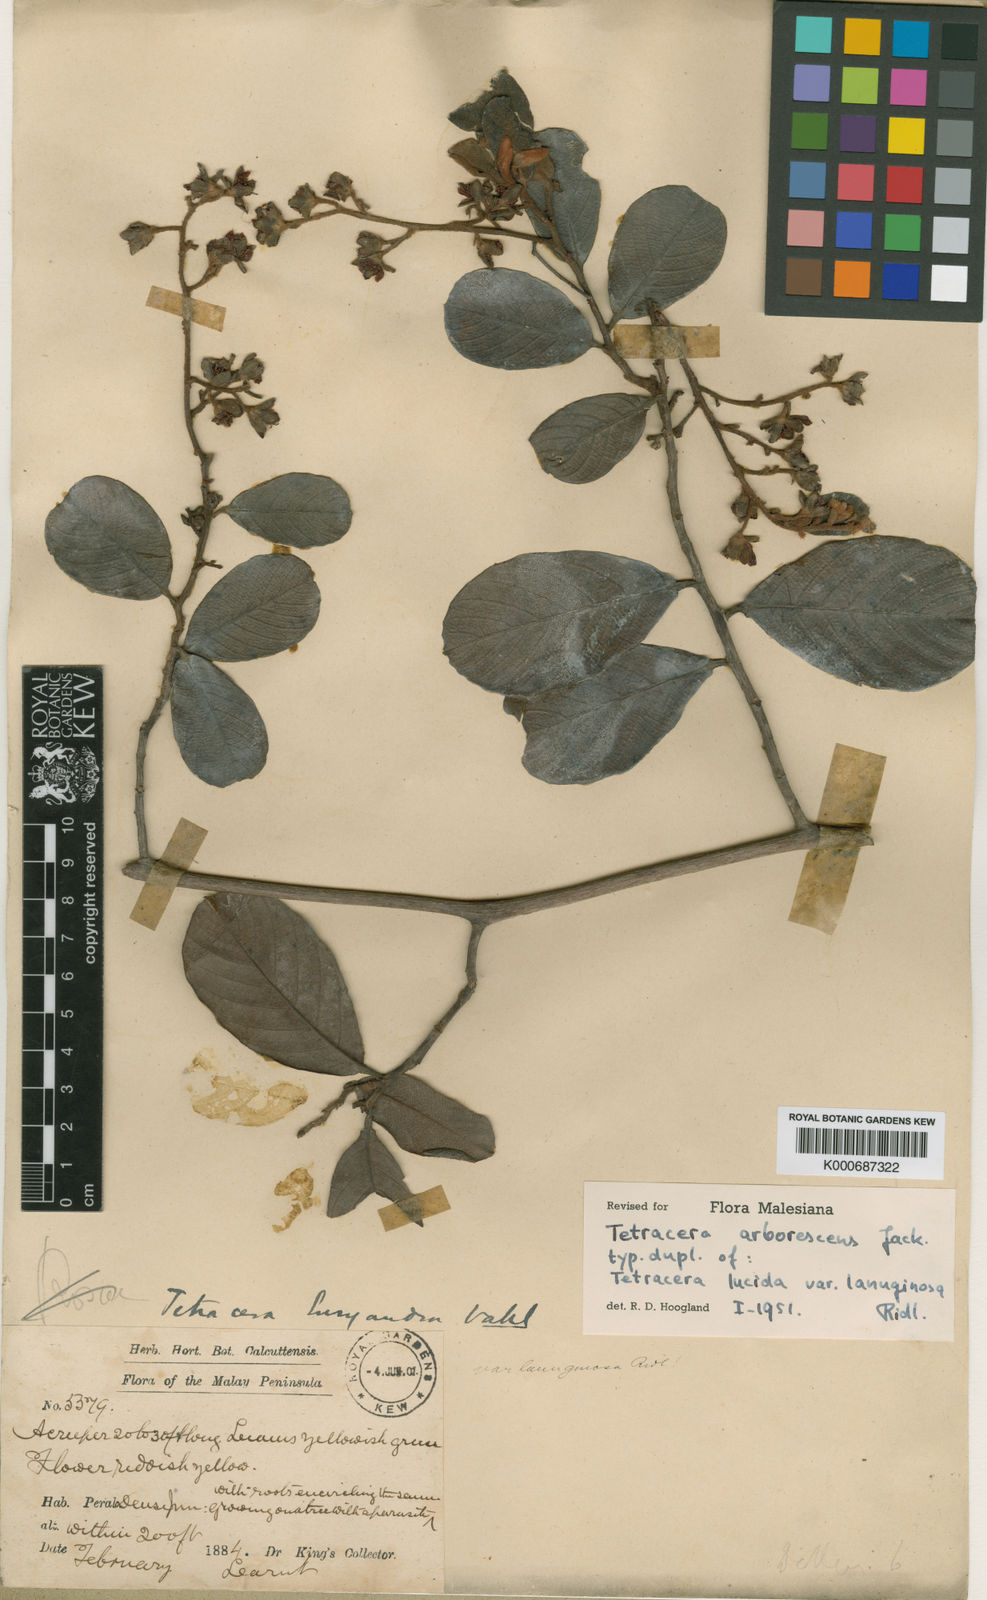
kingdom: Plantae
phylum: Tracheophyta
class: Magnoliopsida
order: Dilleniales
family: Dilleniaceae
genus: Tetracera
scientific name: Tetracera arborescens
